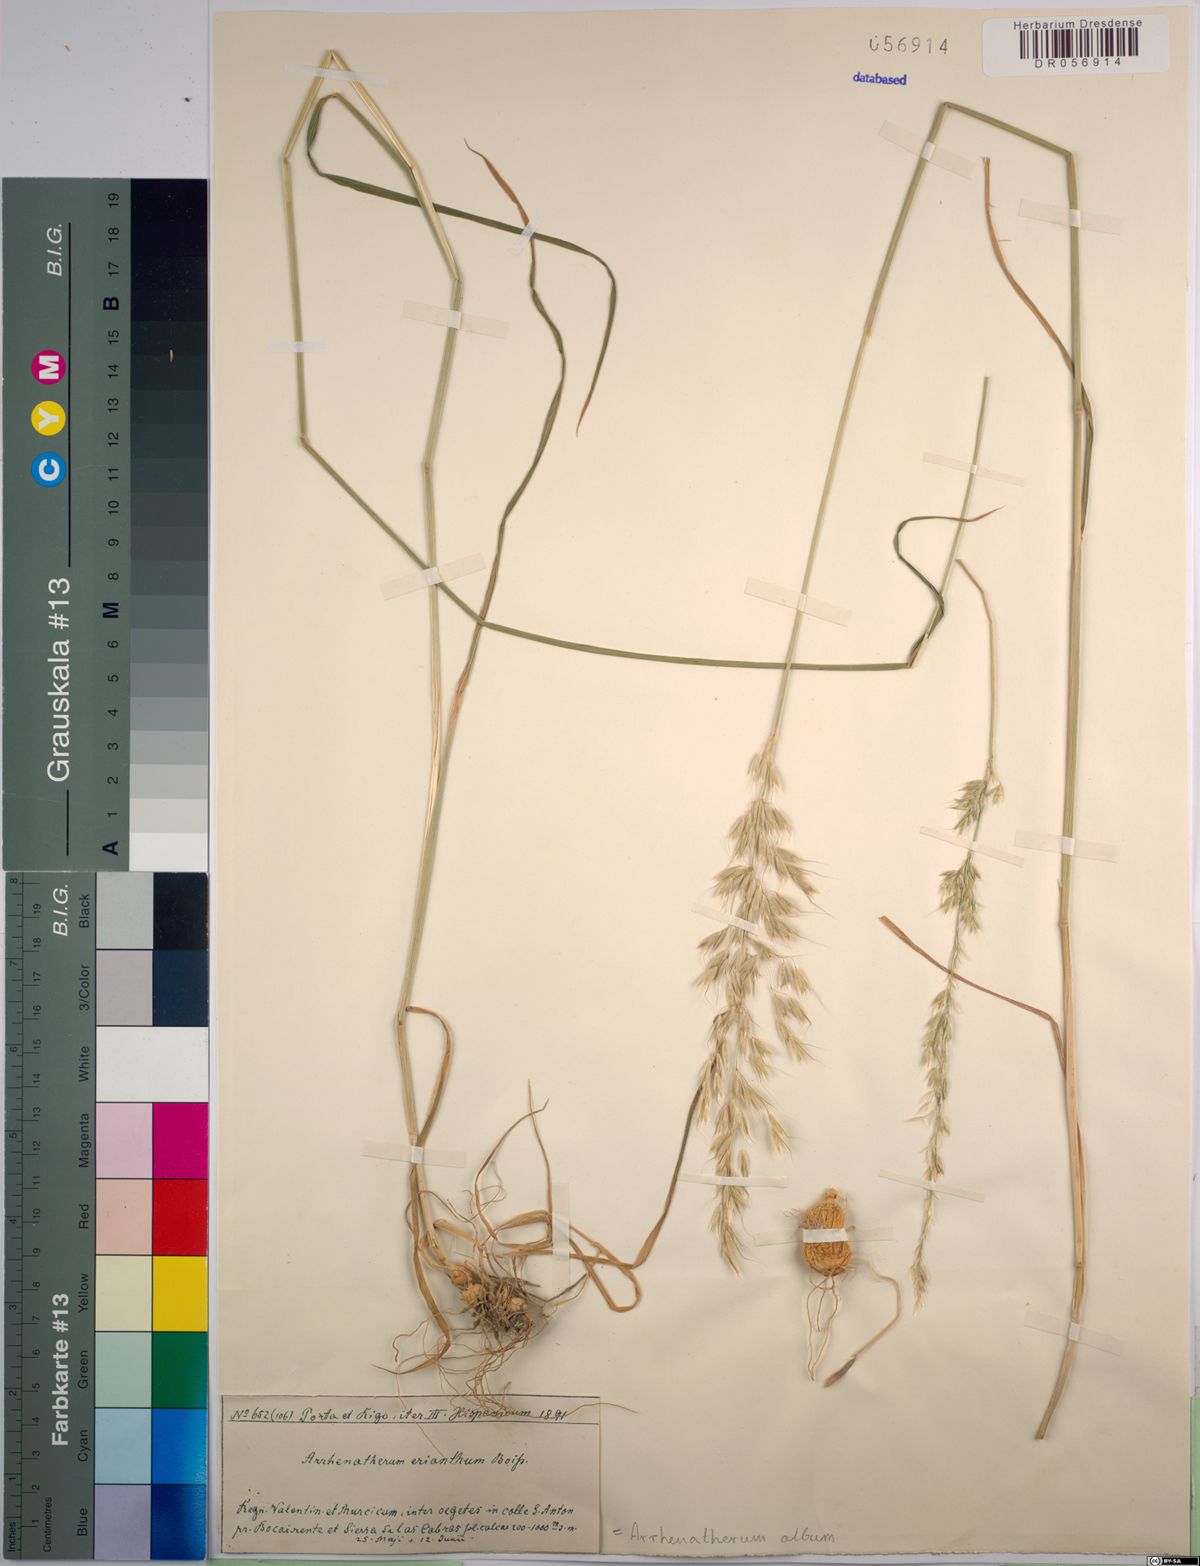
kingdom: Plantae
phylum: Tracheophyta
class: Liliopsida
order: Poales
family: Poaceae
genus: Arrhenatherum
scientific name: Arrhenatherum album
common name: Tall oat grass
